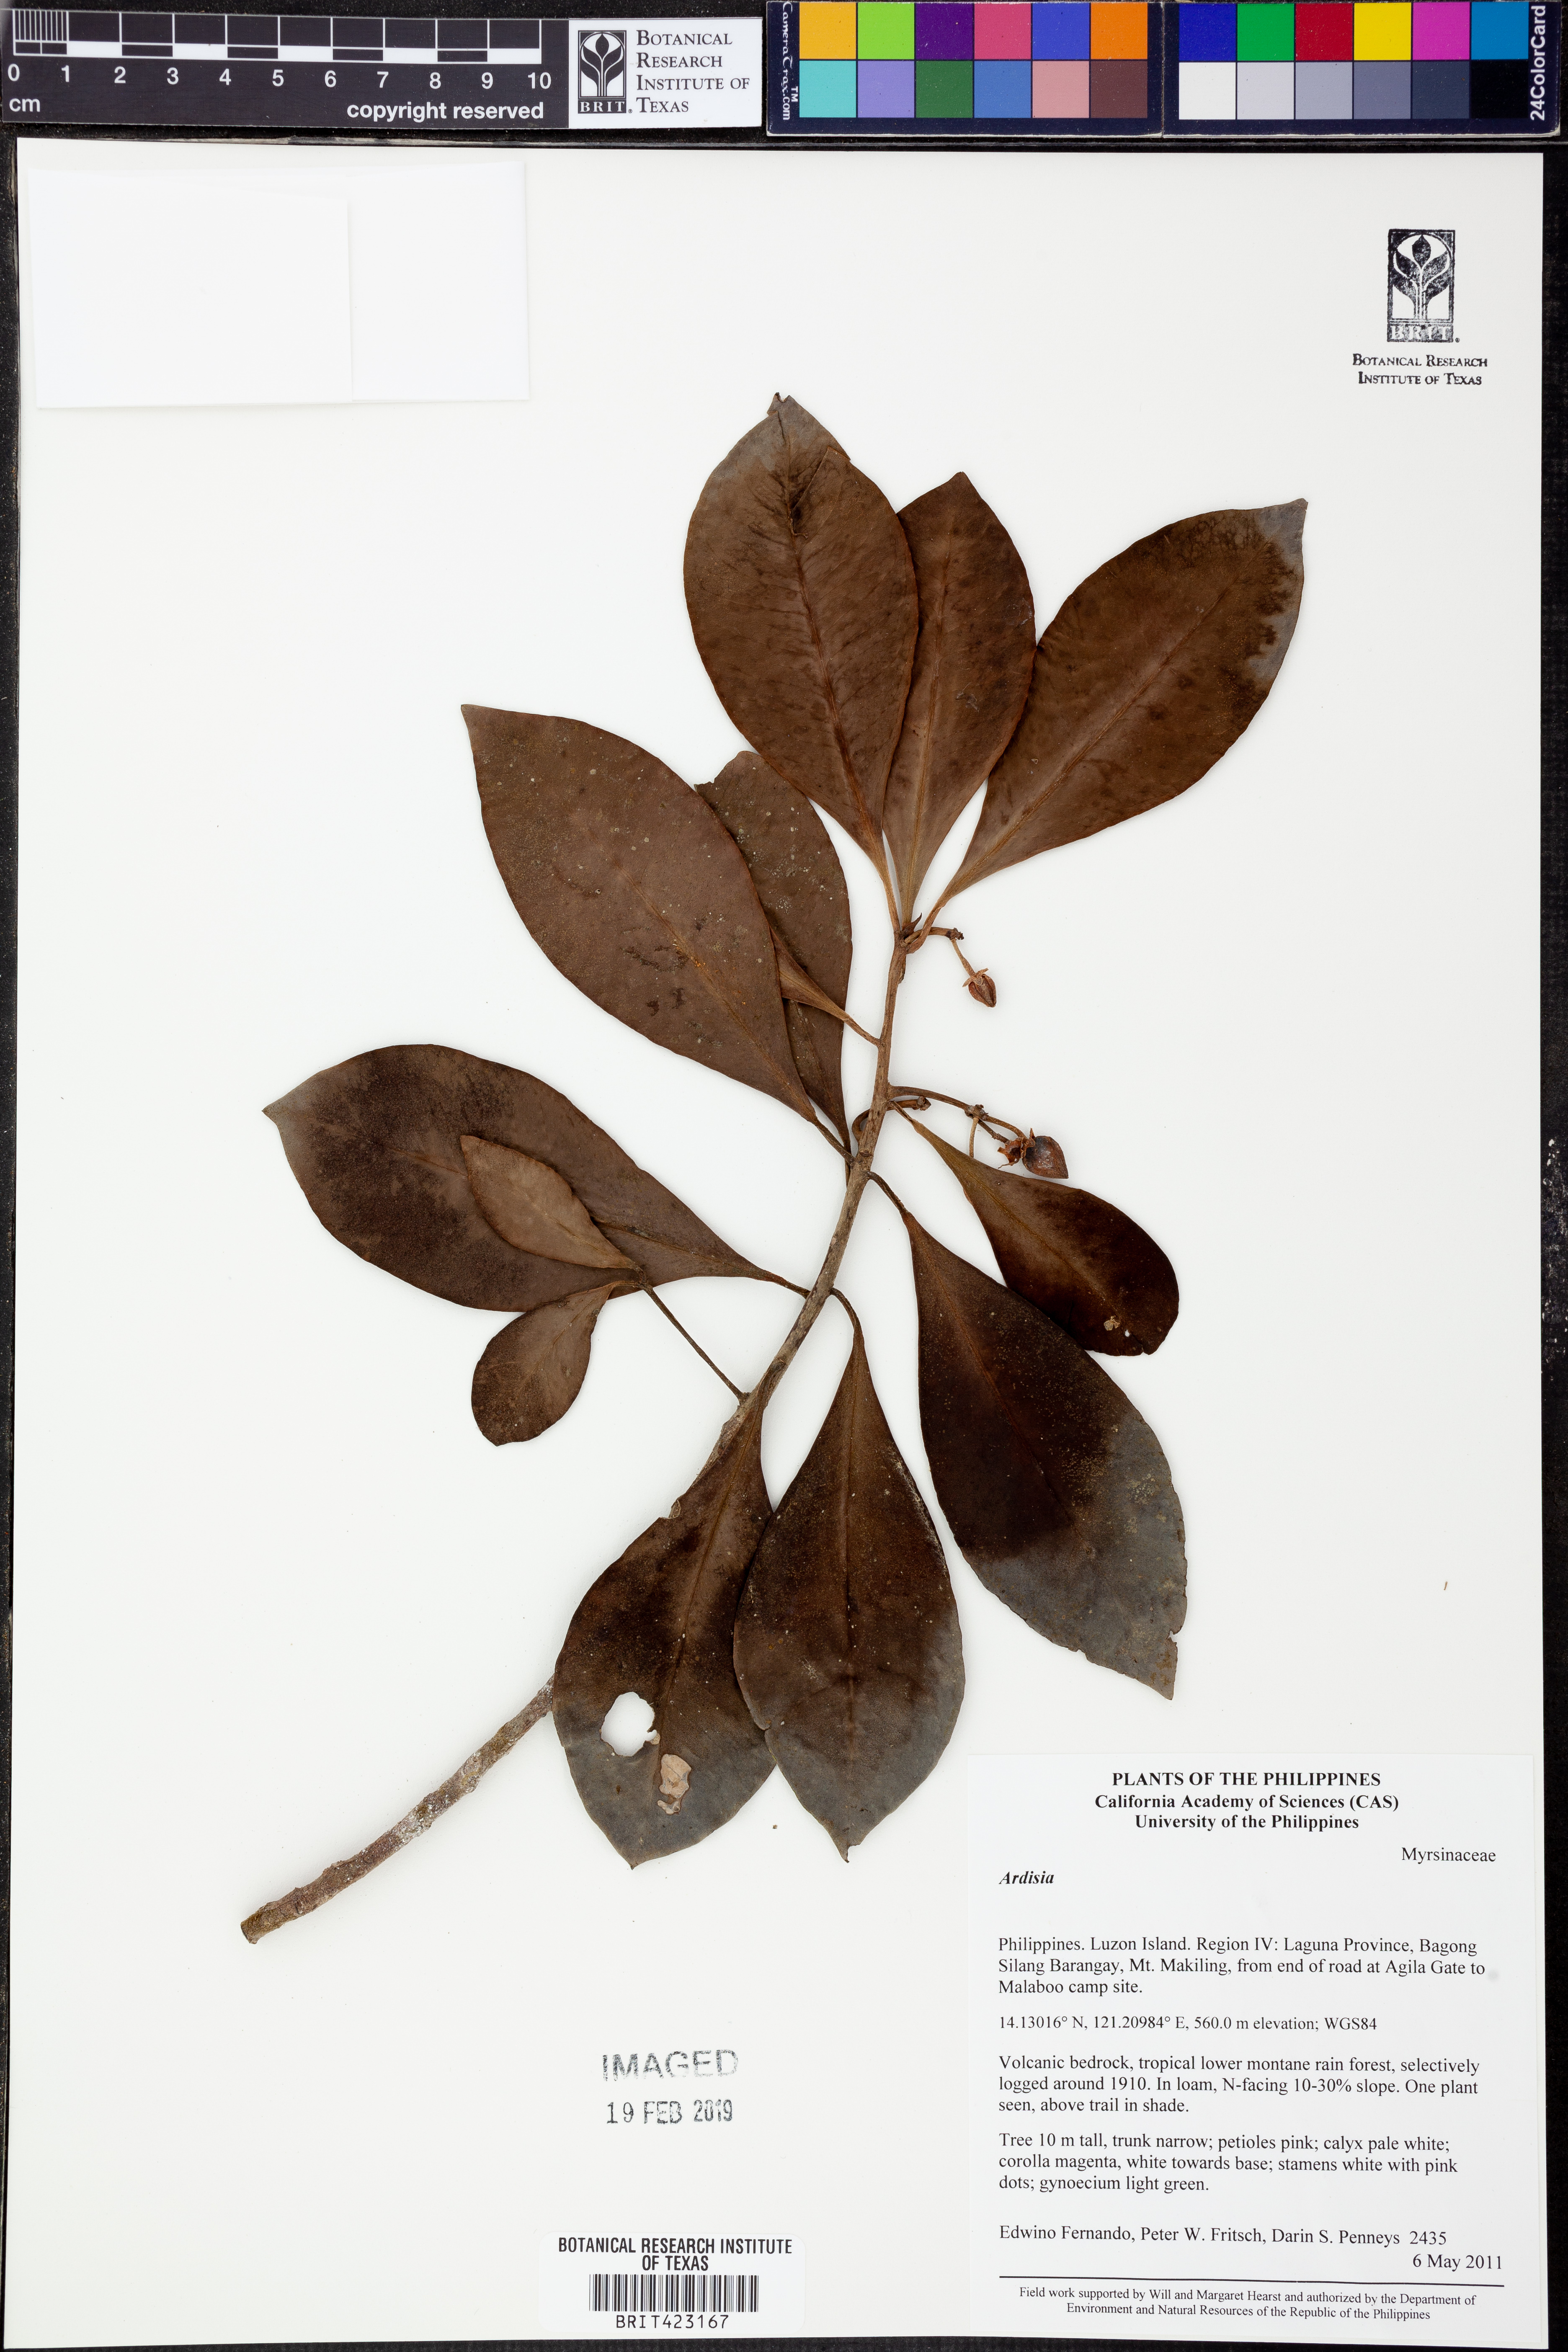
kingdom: Plantae
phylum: Tracheophyta
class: Magnoliopsida
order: Ericales
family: Primulaceae
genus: Ardisia
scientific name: Ardisia
